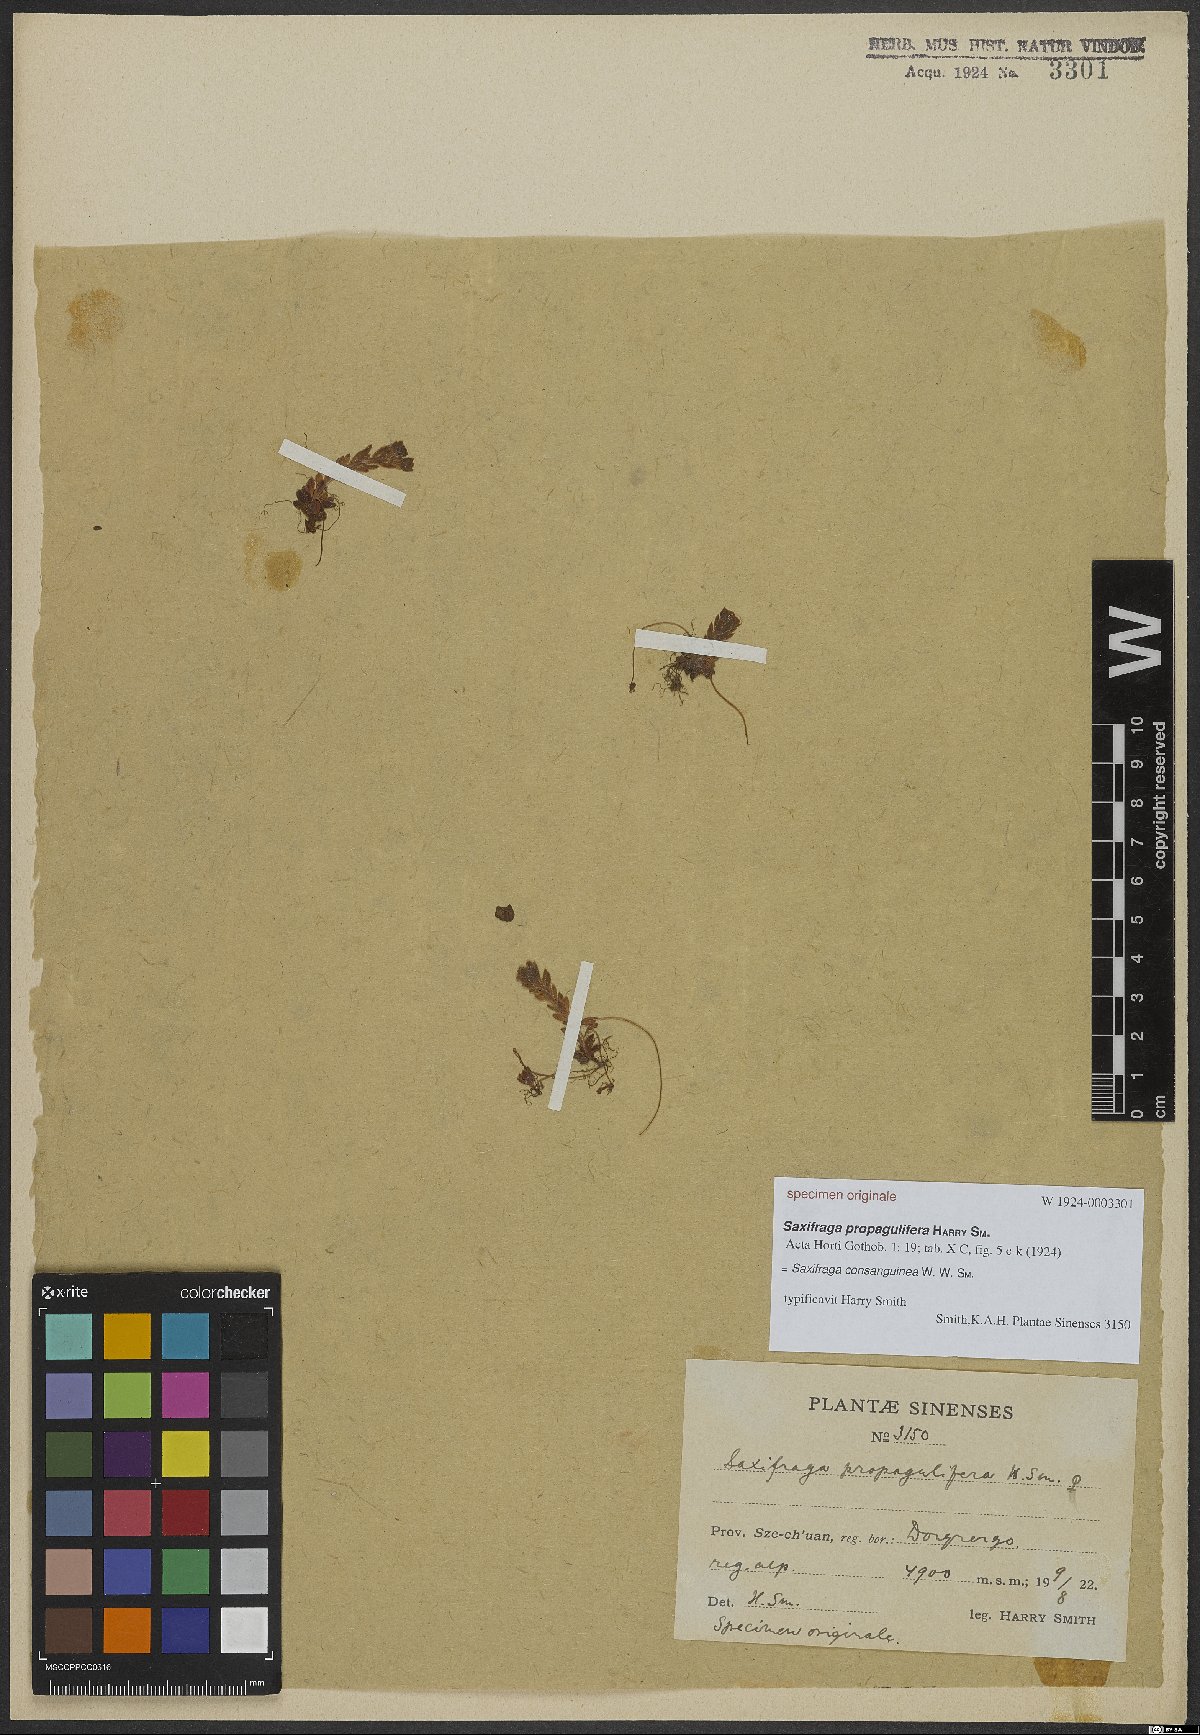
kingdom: Plantae
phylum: Tracheophyta
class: Magnoliopsida
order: Saxifragales
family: Saxifragaceae
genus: Saxifraga
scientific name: Saxifraga consanguinea
